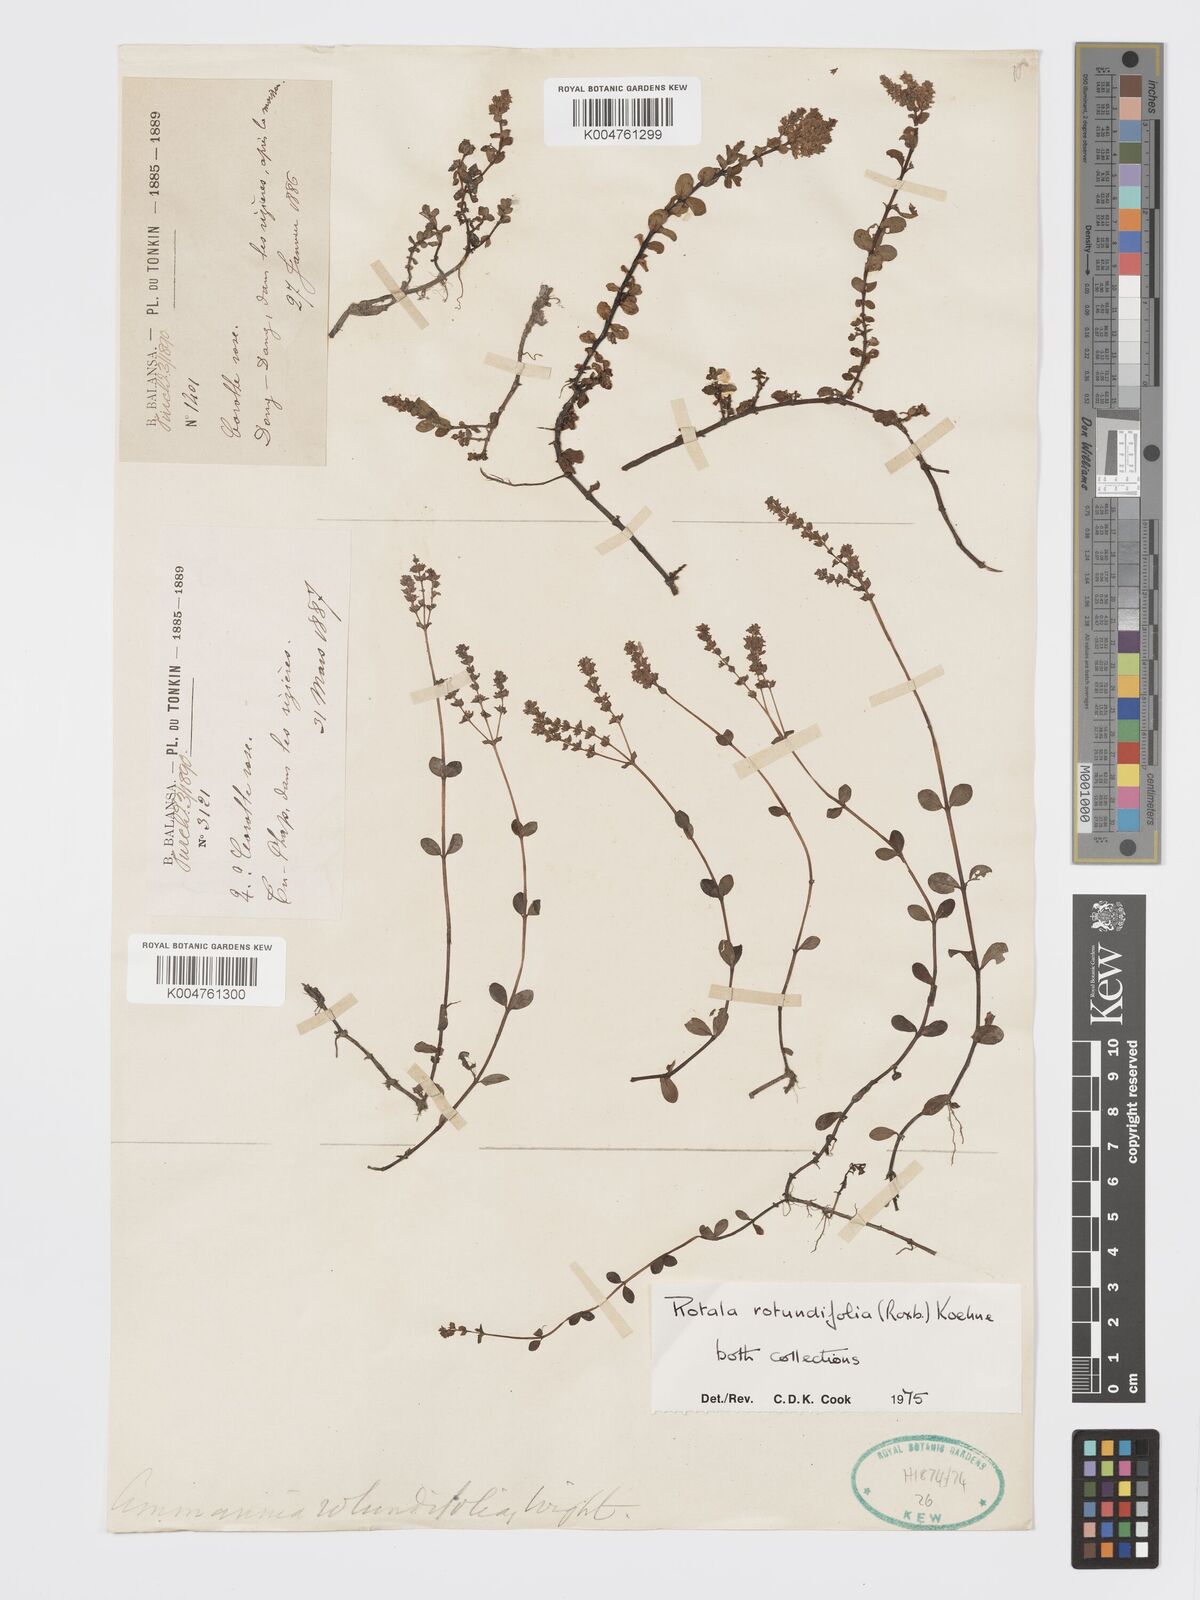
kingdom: Plantae
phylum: Tracheophyta
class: Magnoliopsida
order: Myrtales
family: Lythraceae
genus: Rotala
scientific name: Rotala rotundifolia
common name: Roundleaf toothcup
